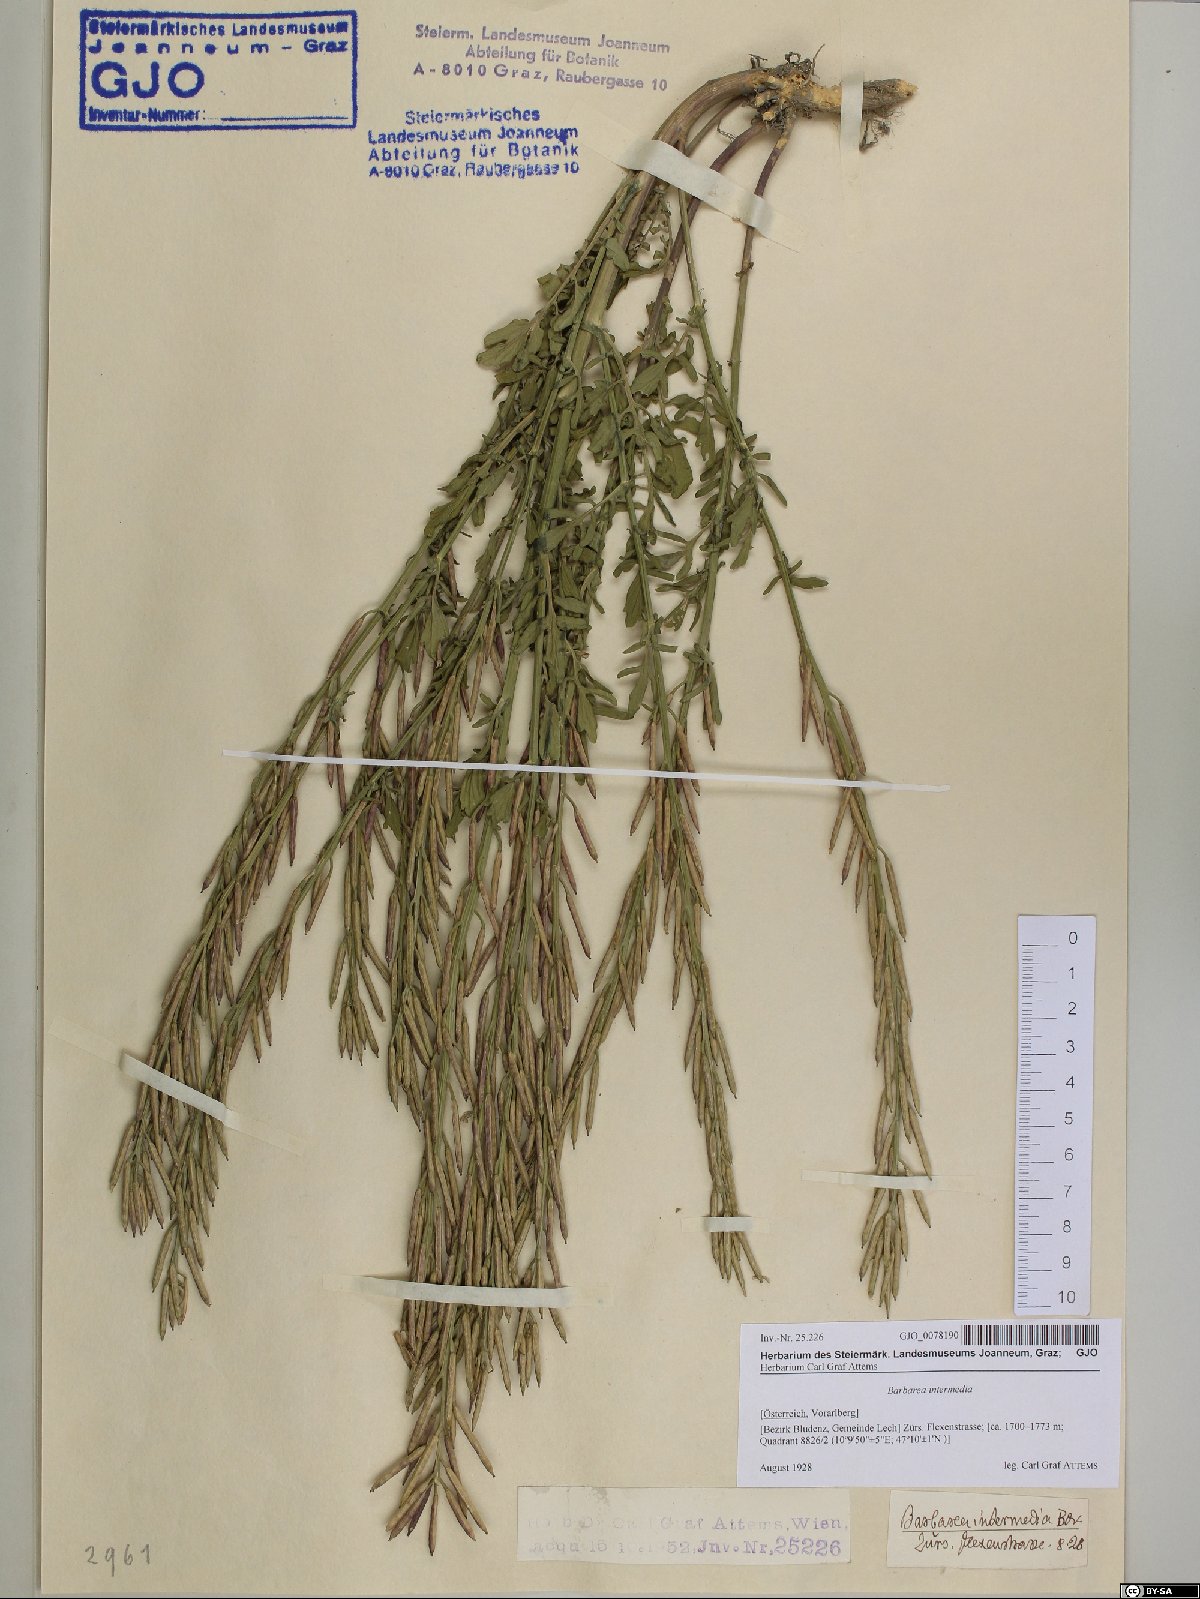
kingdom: Plantae
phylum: Tracheophyta
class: Magnoliopsida
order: Brassicales
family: Brassicaceae
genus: Barbarea
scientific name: Barbarea intermedia
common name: Medium-flowered winter-cress
